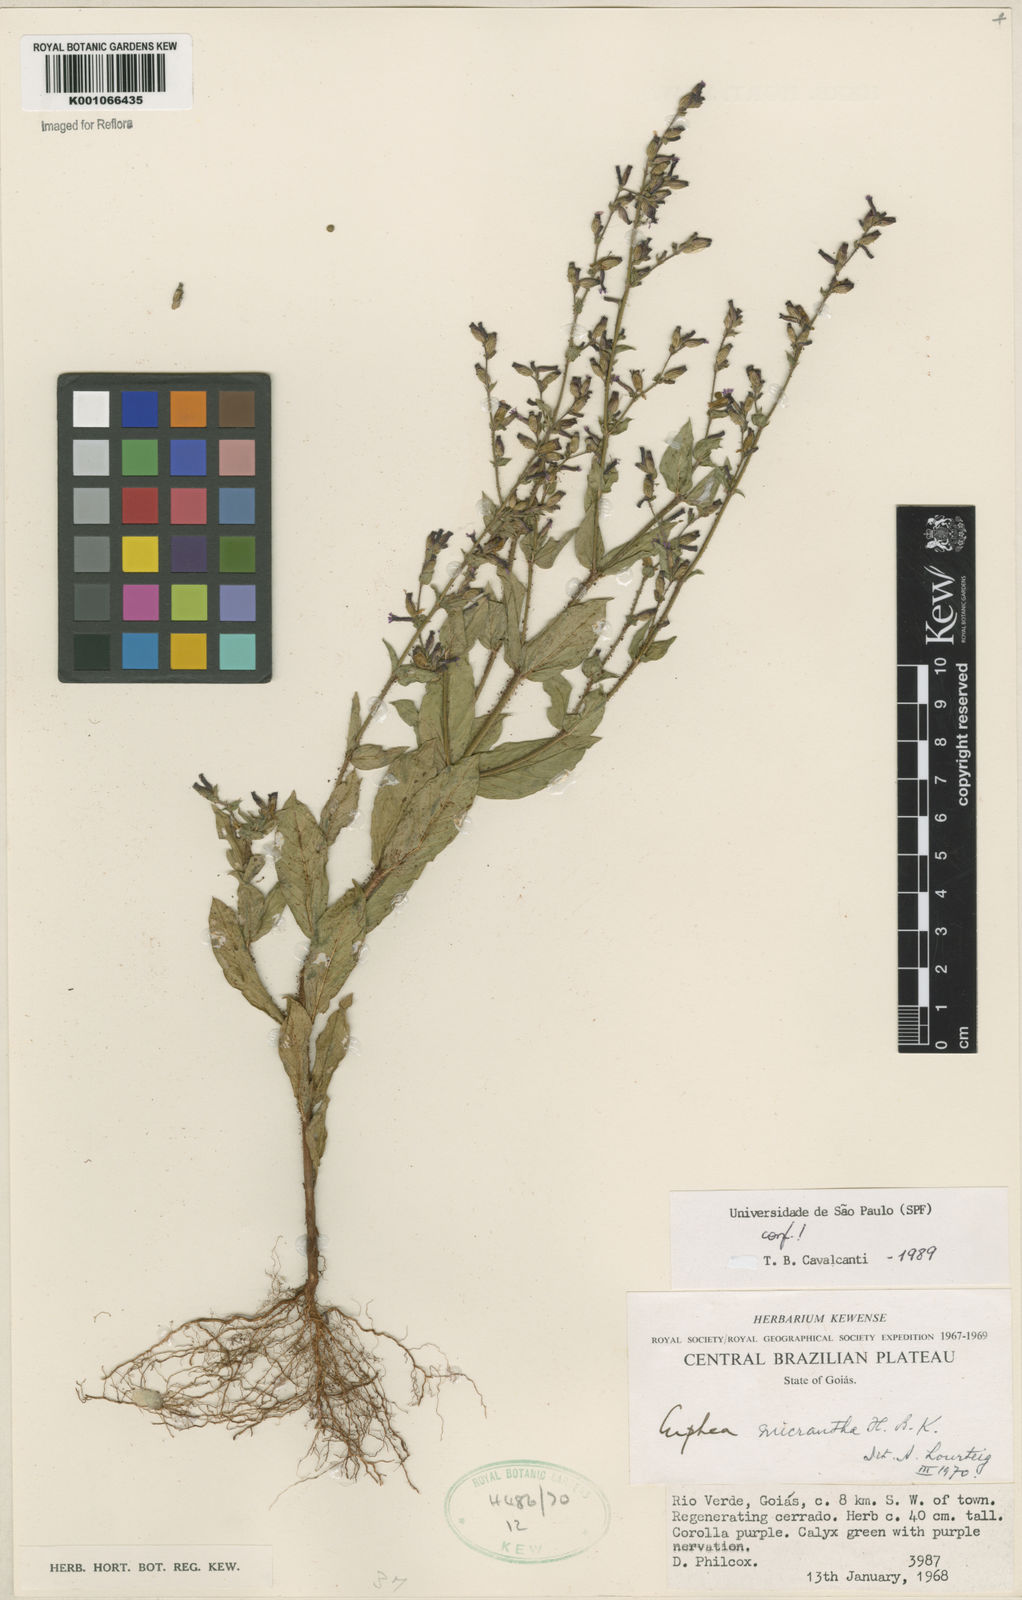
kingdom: Plantae
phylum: Tracheophyta
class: Magnoliopsida
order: Myrtales
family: Lythraceae
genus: Cuphea
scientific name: Cuphea micrantha
